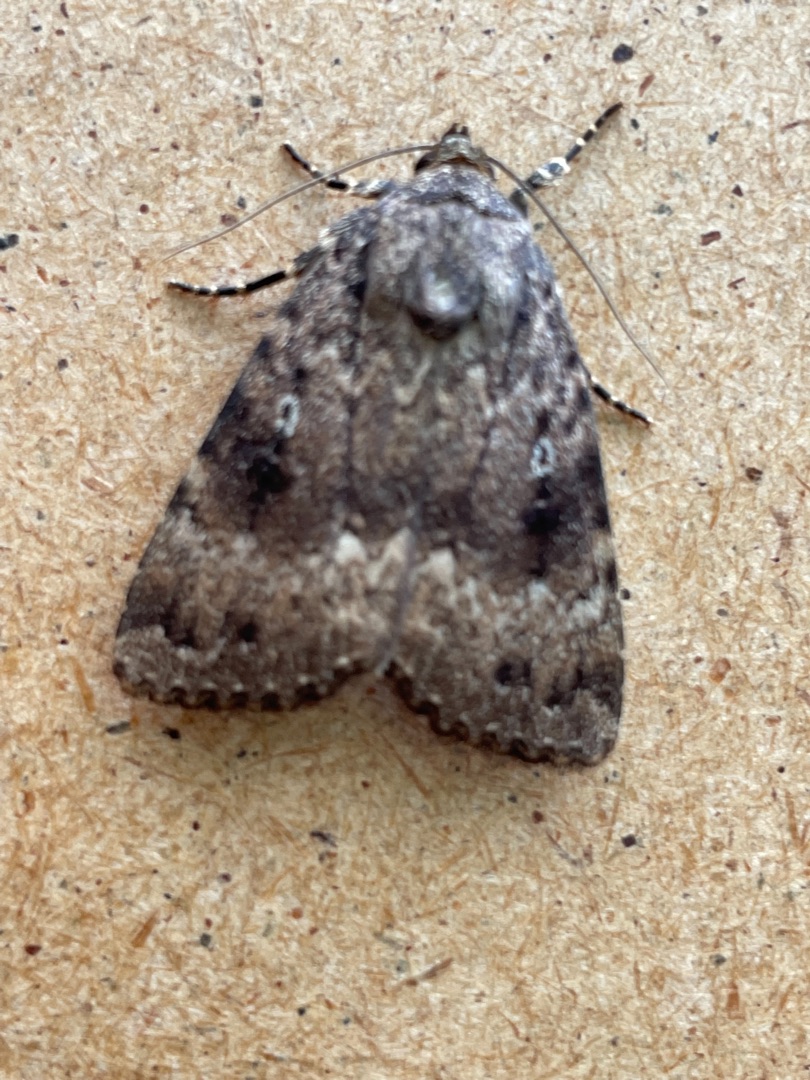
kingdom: Animalia
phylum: Arthropoda
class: Insecta
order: Lepidoptera
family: Noctuidae
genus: Amphipyra
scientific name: Amphipyra pyramidea
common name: Pyramideugle
